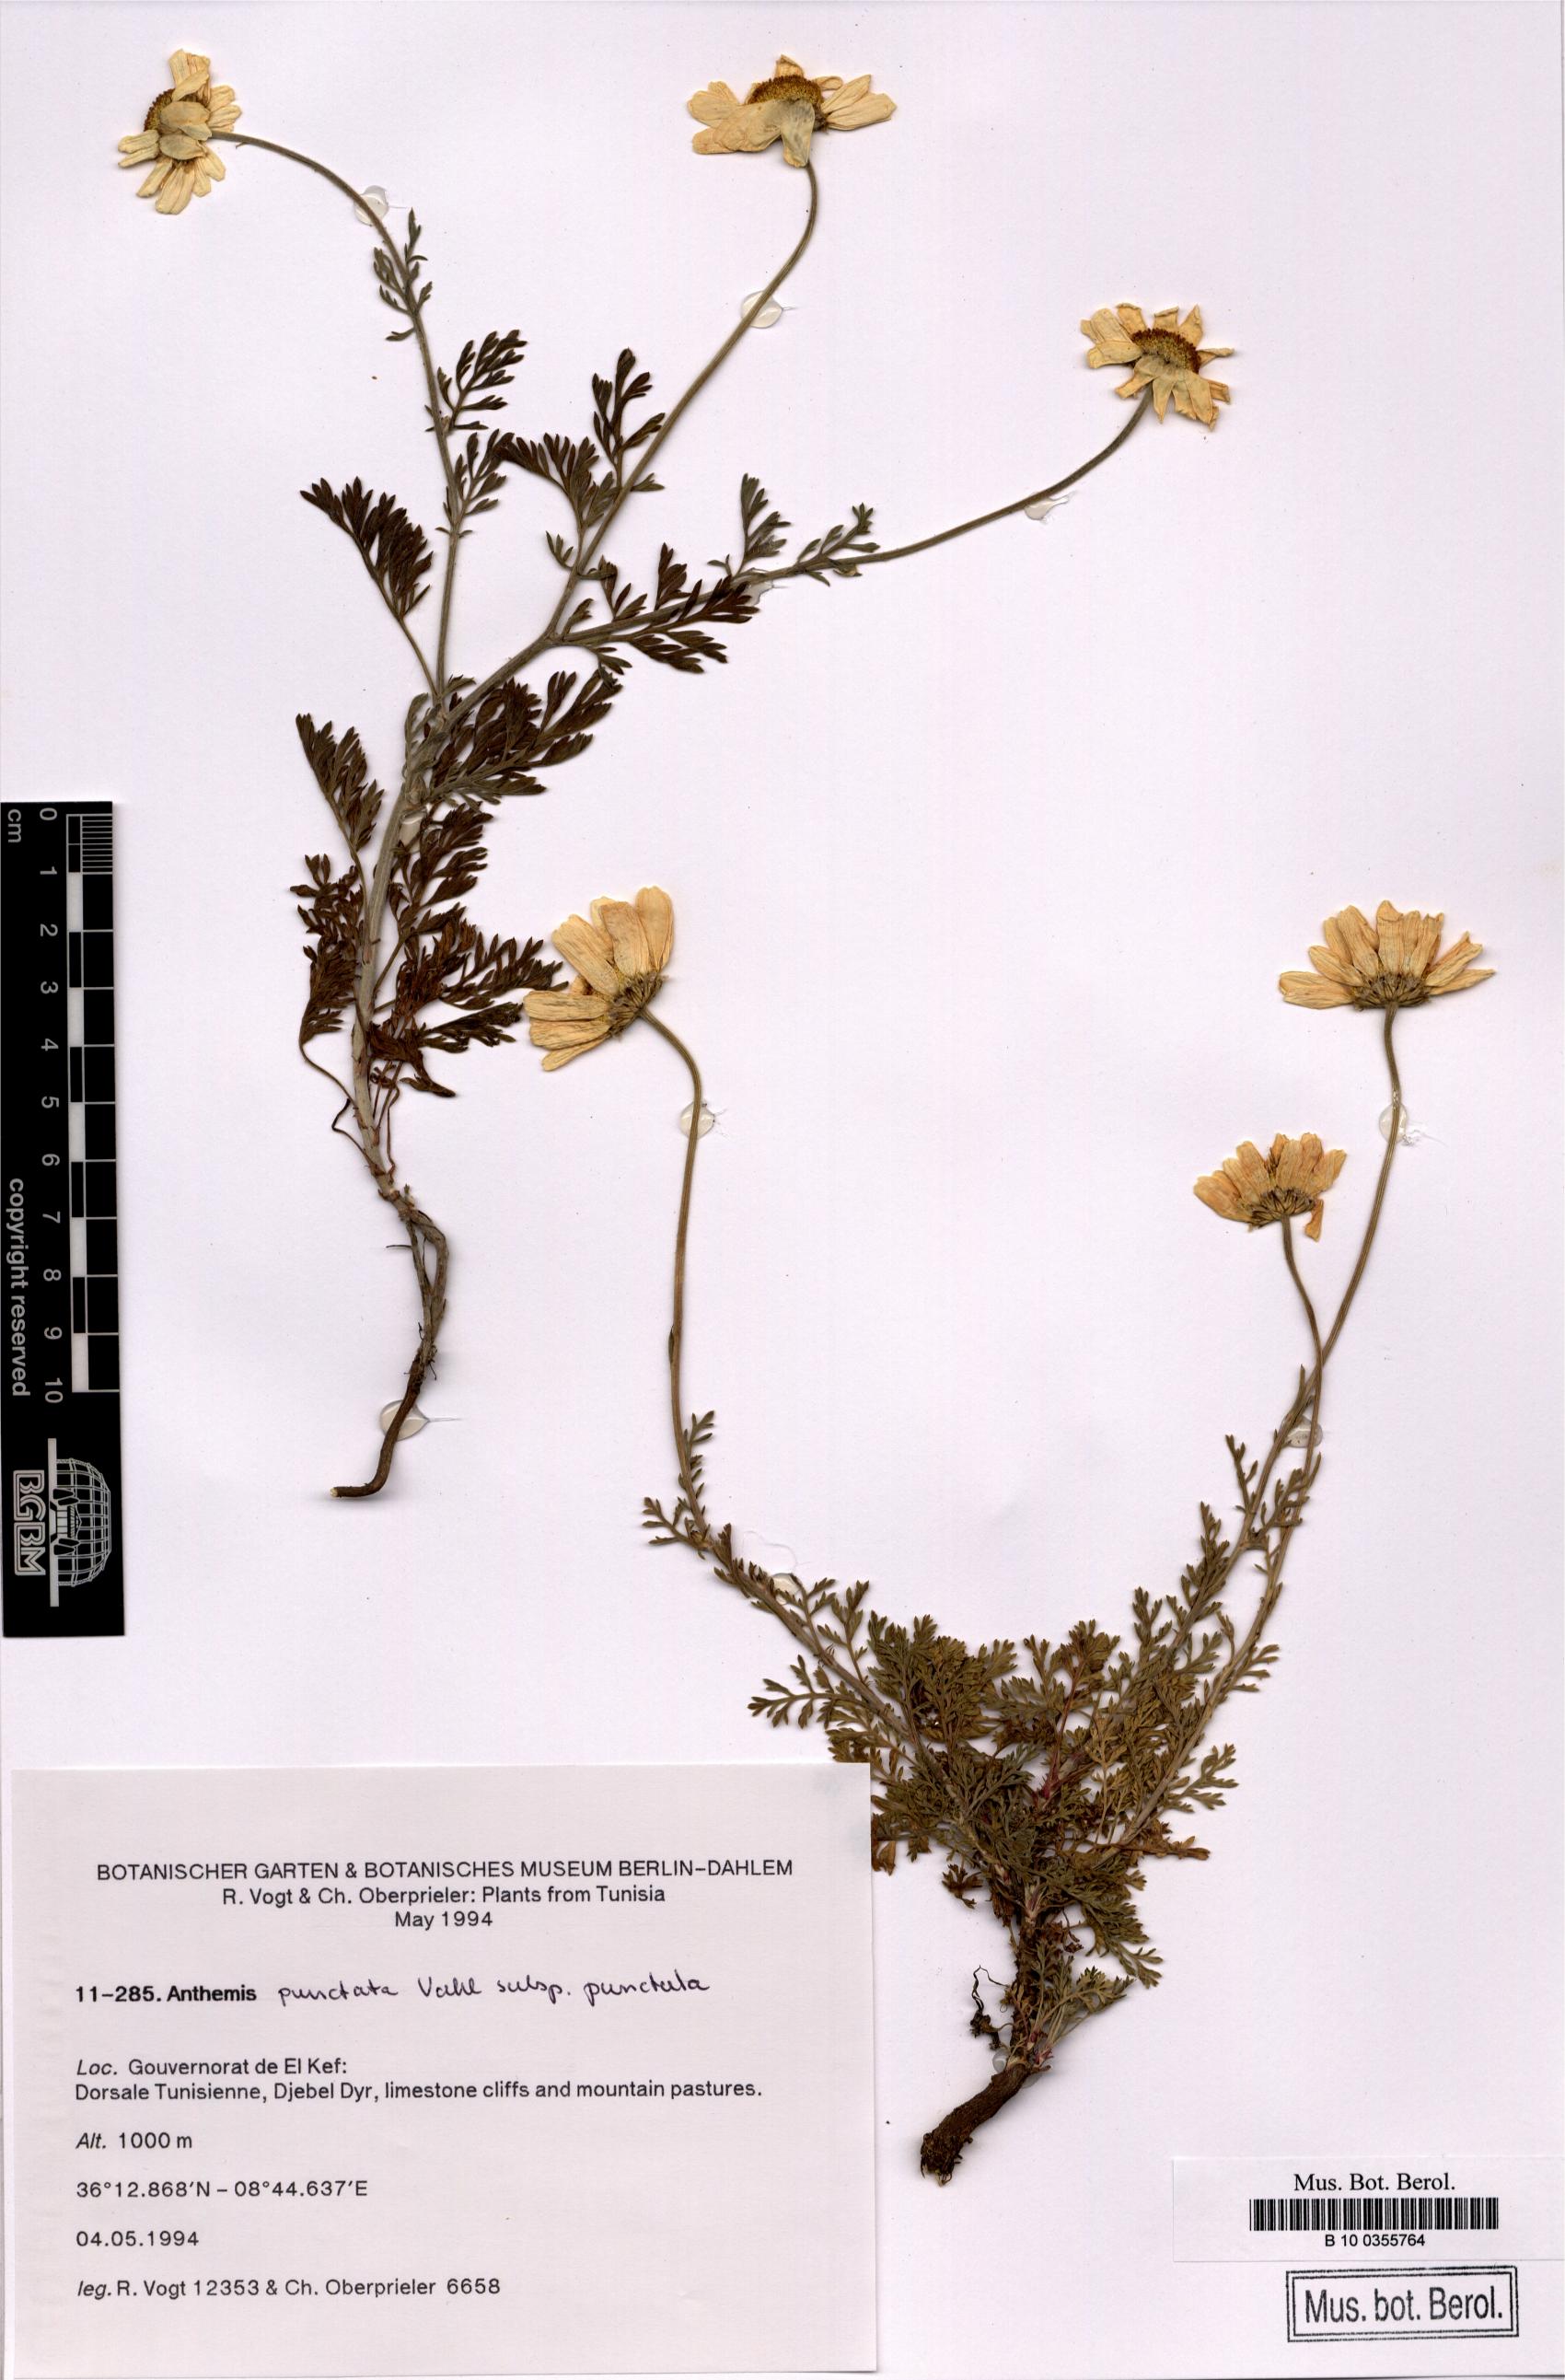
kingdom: Plantae
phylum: Tracheophyta
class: Magnoliopsida
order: Asterales
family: Asteraceae
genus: Anthemis
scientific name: Anthemis punctata
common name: Sicilian chamomile
